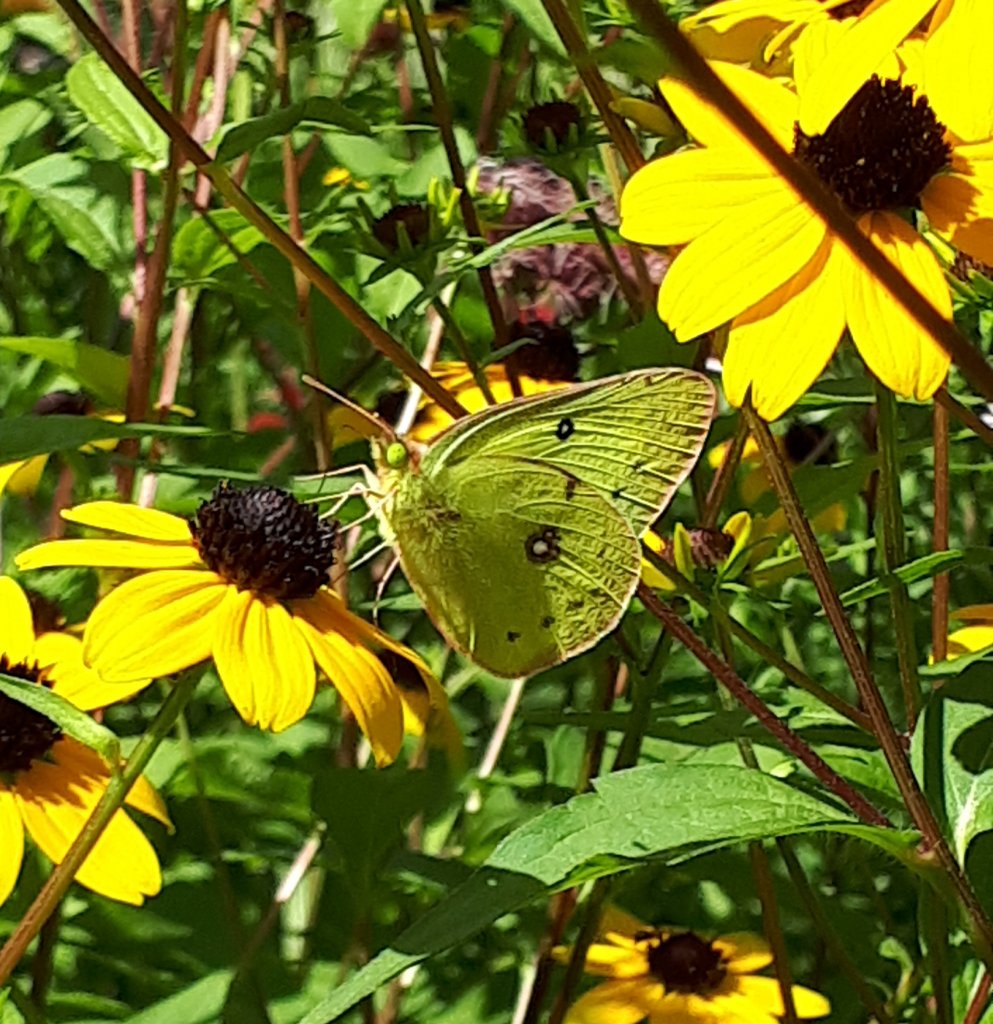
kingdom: Animalia
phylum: Arthropoda
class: Insecta
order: Lepidoptera
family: Pieridae
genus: Colias
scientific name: Colias philodice
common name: Clouded Sulphur
